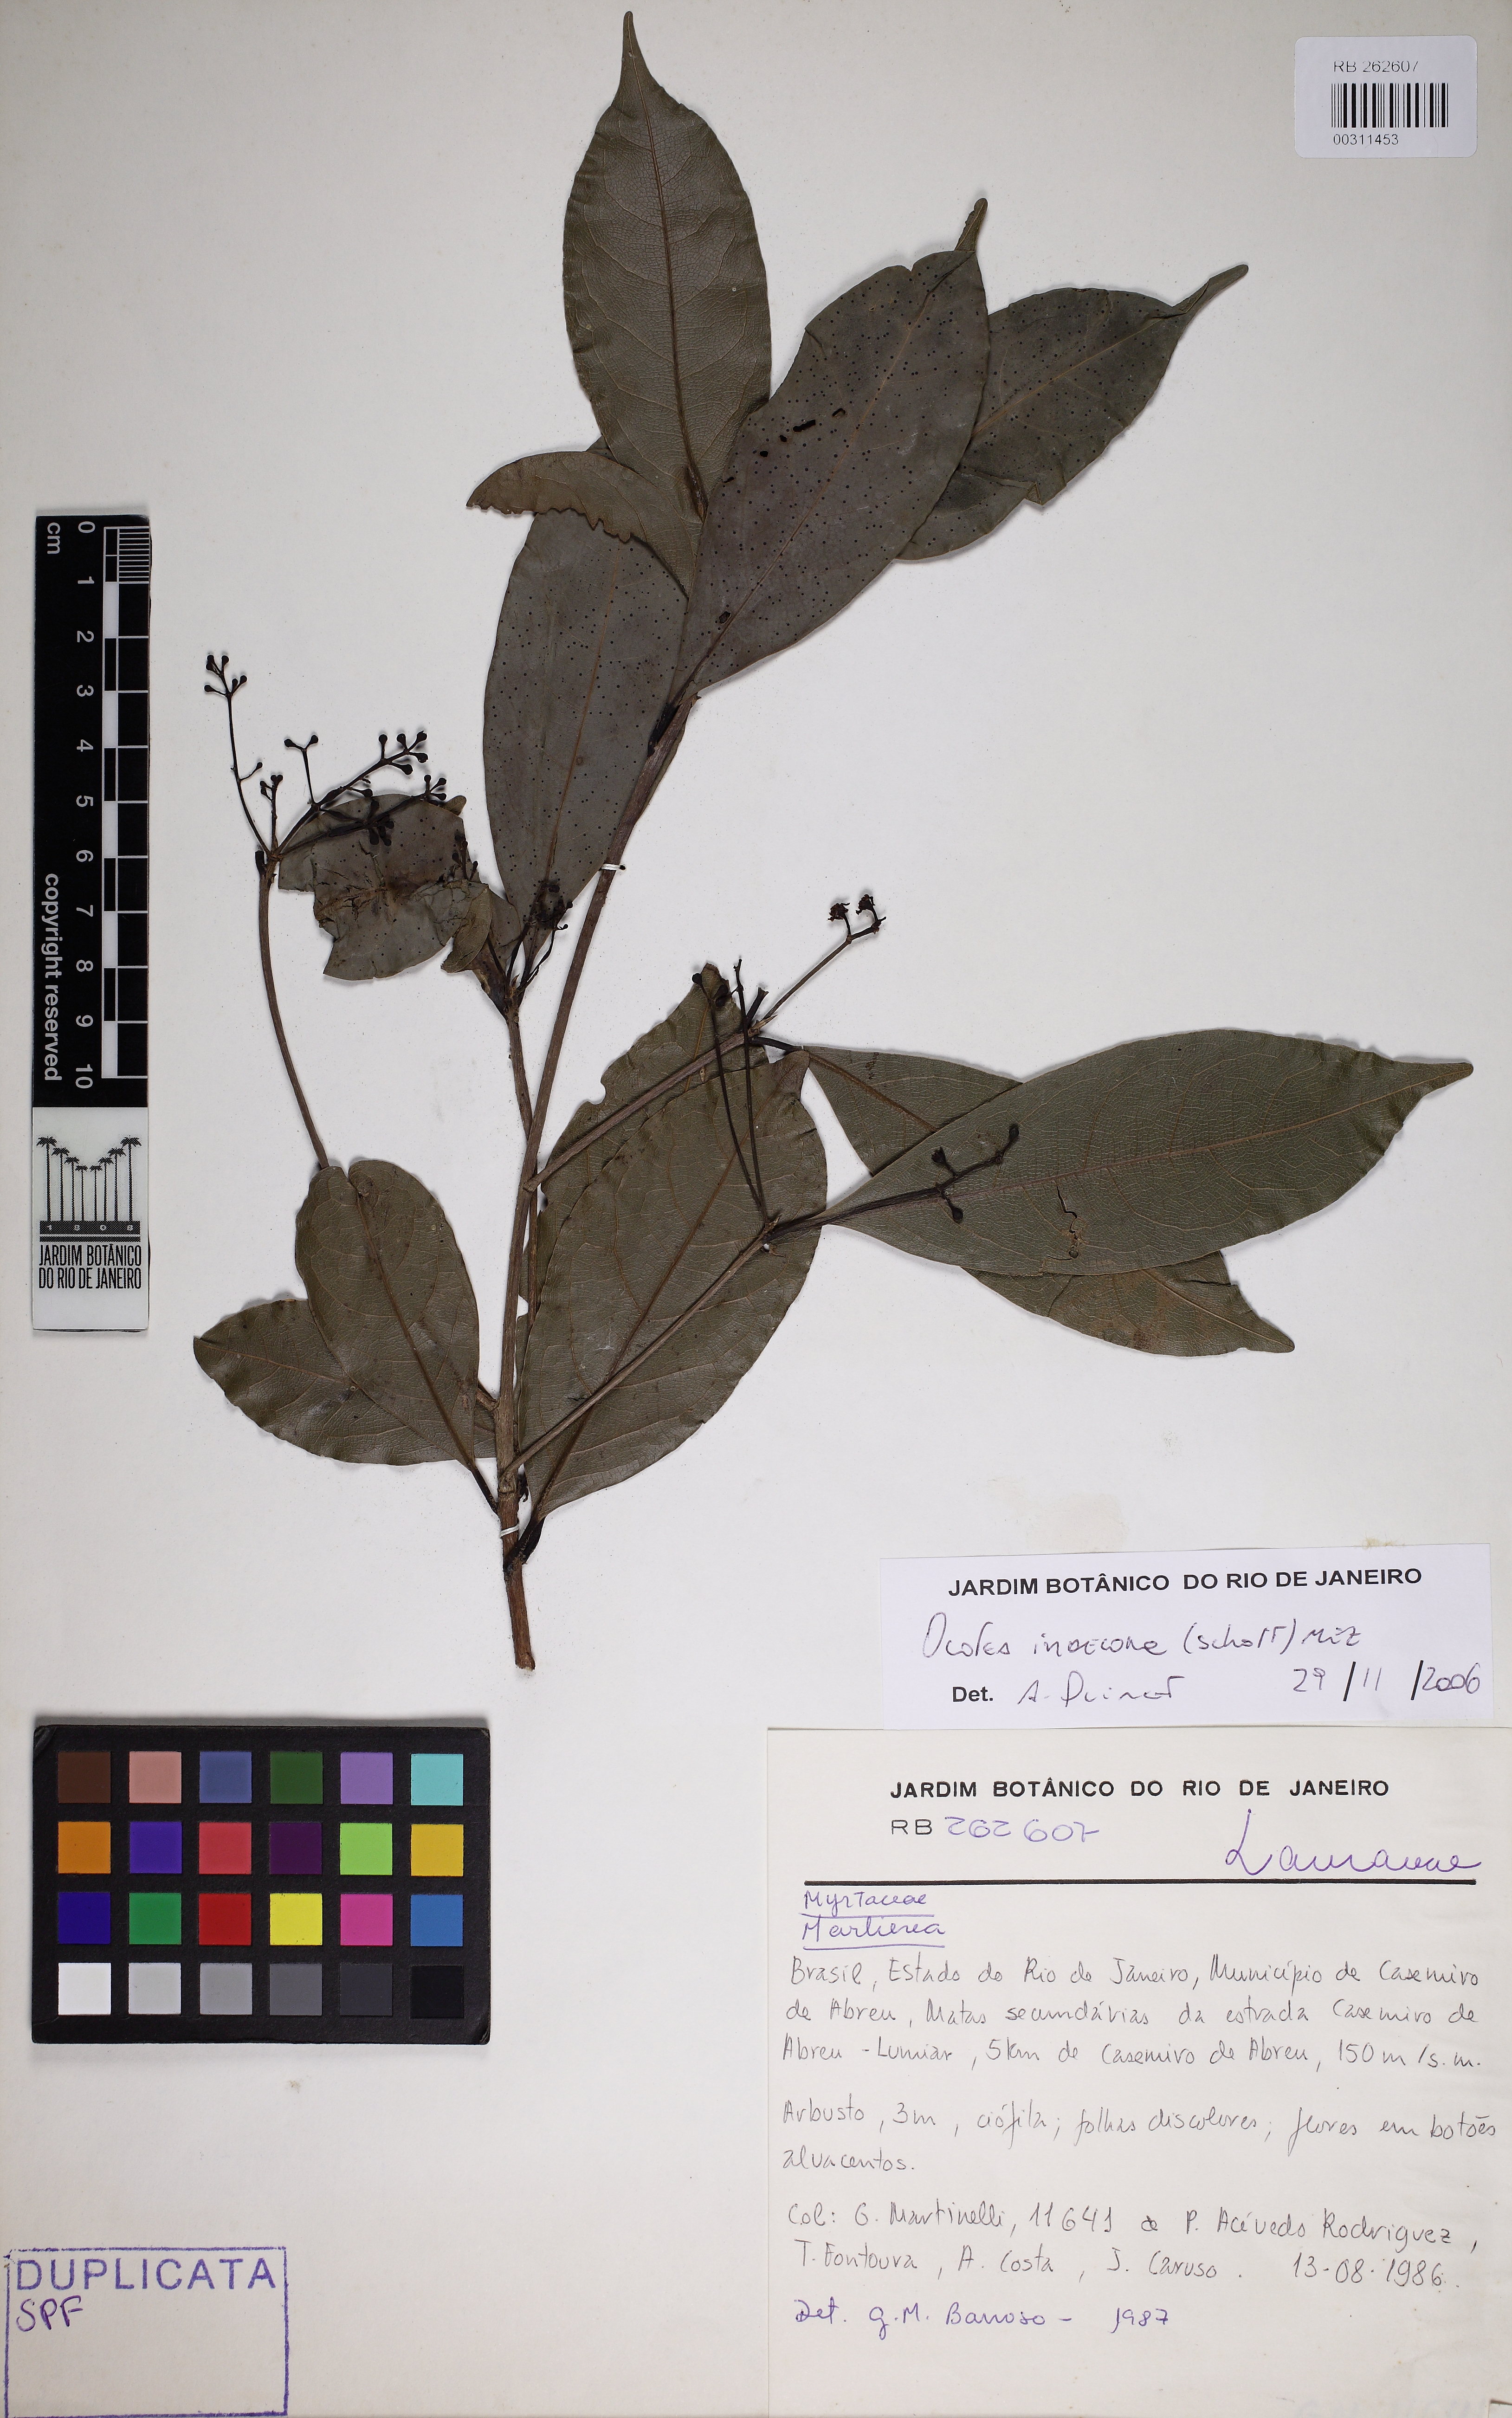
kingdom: Plantae
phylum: Tracheophyta
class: Magnoliopsida
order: Laurales
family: Lauraceae
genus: Mespilodaphne
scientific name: Mespilodaphne indecora
